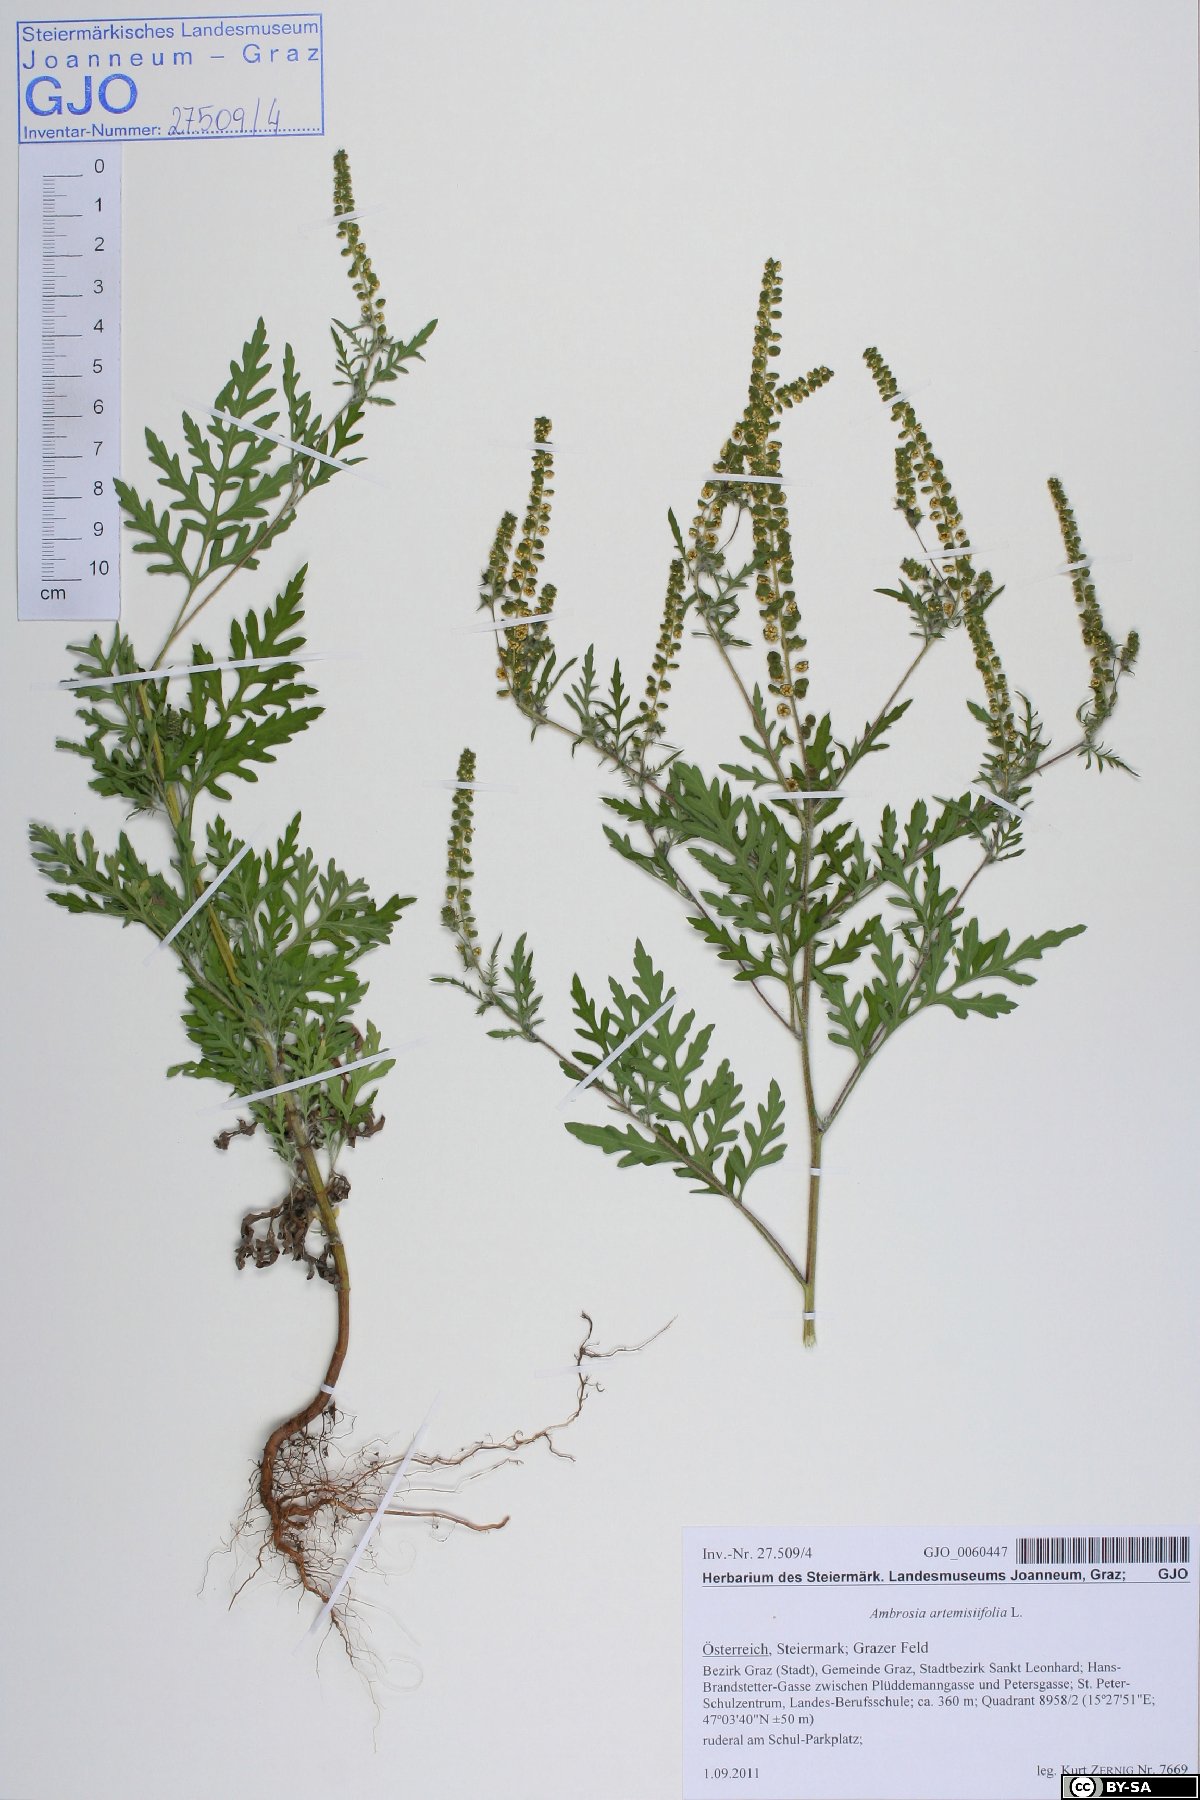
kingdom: Plantae
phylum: Tracheophyta
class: Magnoliopsida
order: Asterales
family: Asteraceae
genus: Ambrosia
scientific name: Ambrosia artemisiifolia
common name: Annual ragweed
